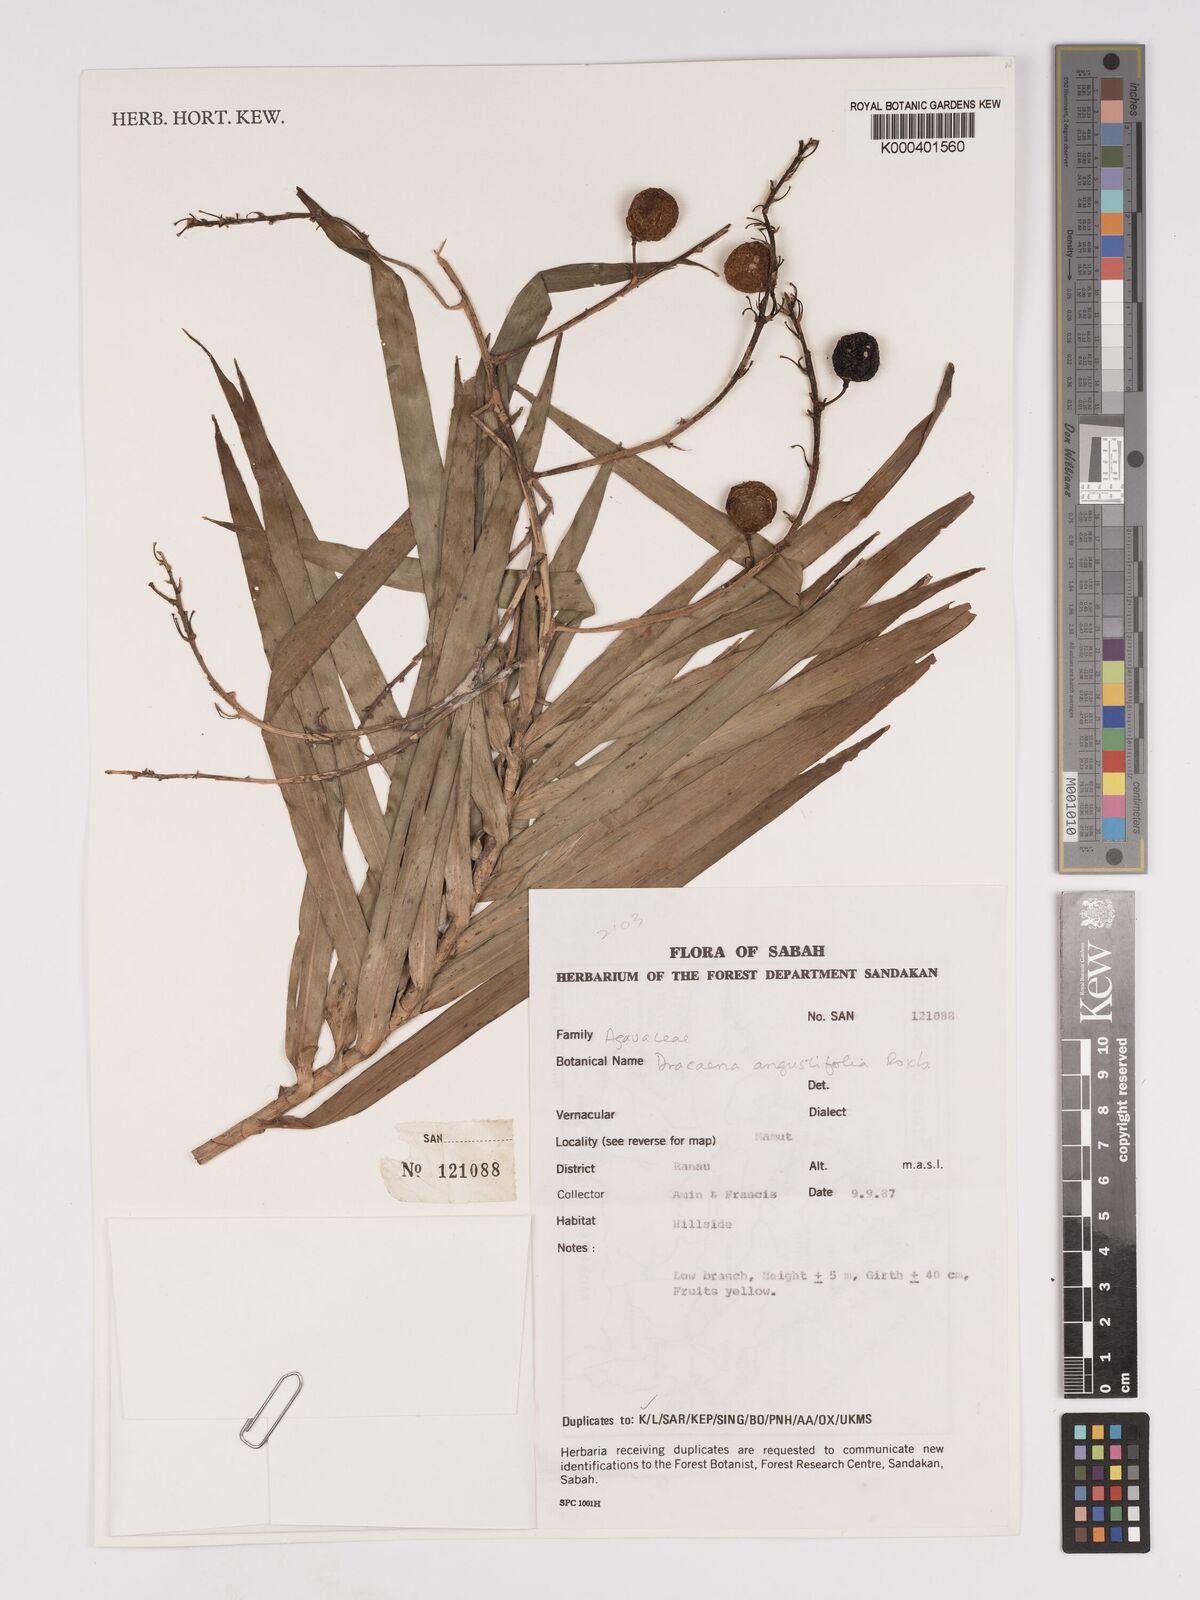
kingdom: Plantae
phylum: Tracheophyta
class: Liliopsida
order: Asparagales
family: Asparagaceae
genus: Dracaena
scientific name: Dracaena angustifolia
